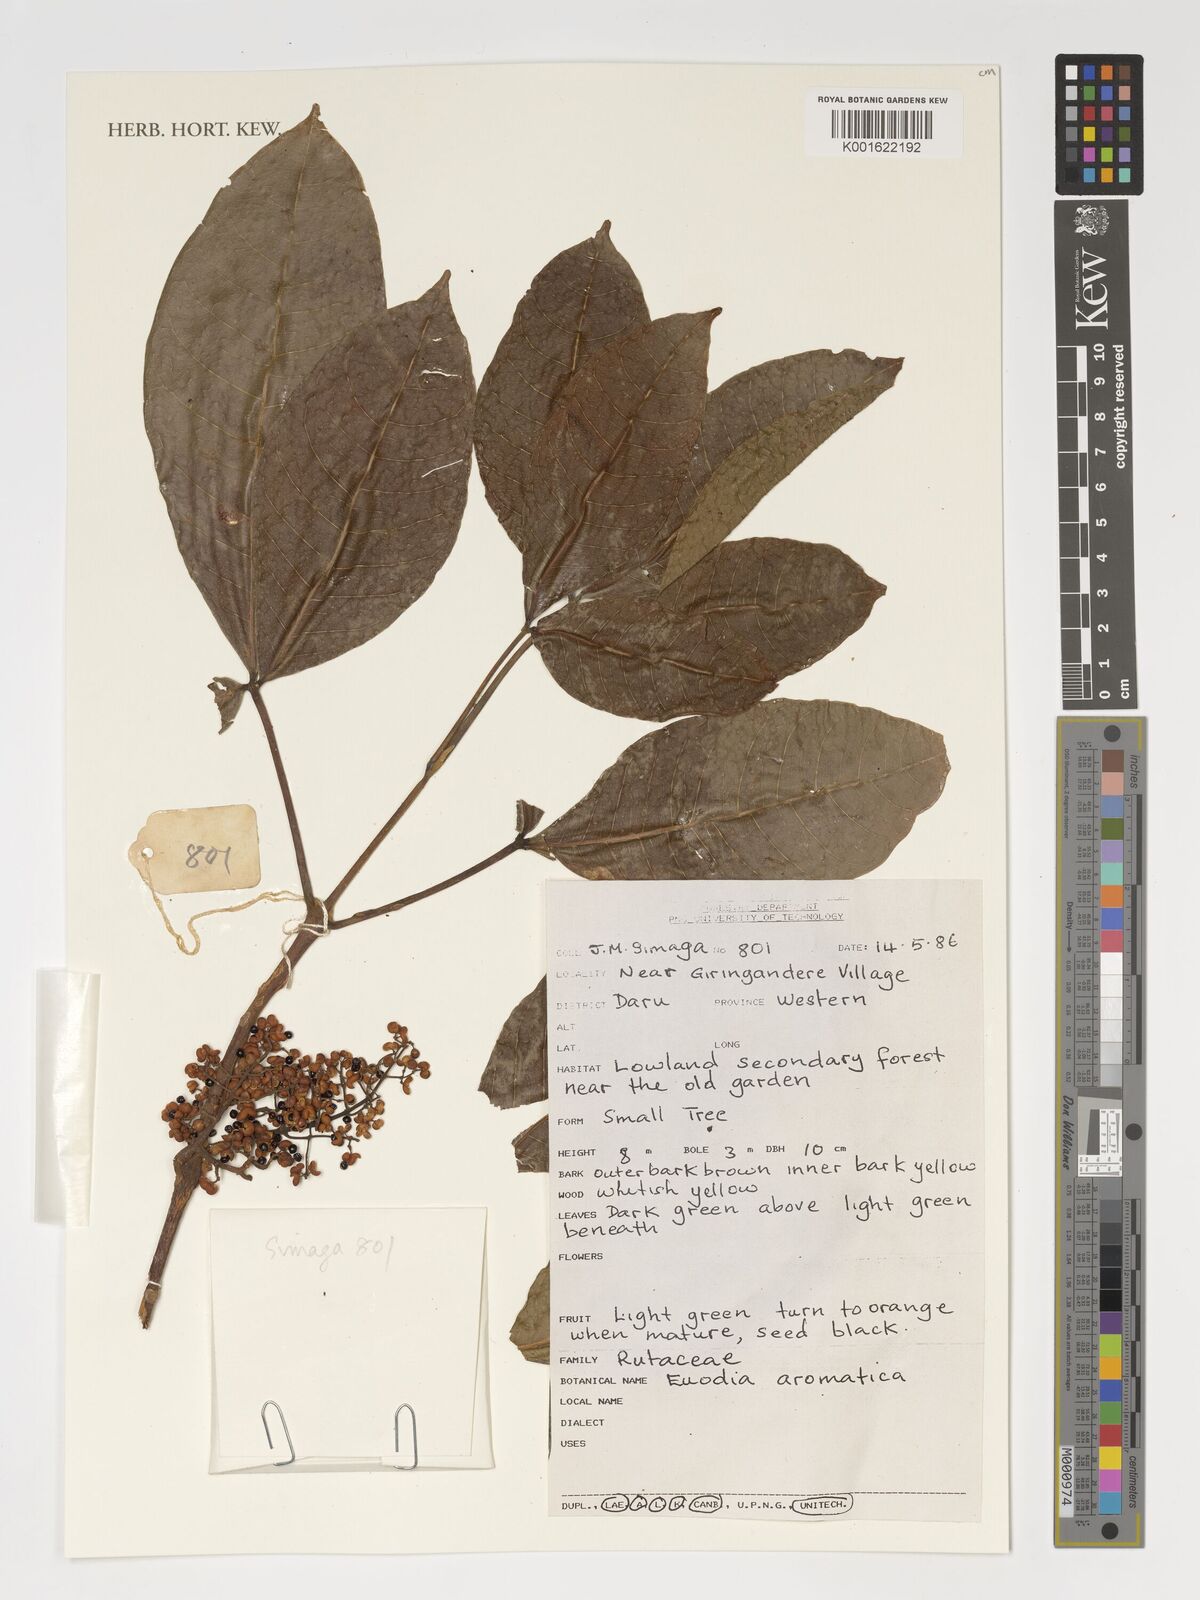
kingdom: Plantae
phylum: Tracheophyta
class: Magnoliopsida
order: Sapindales
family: Rutaceae
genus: Melicope
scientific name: Melicope lunu-ankenda
